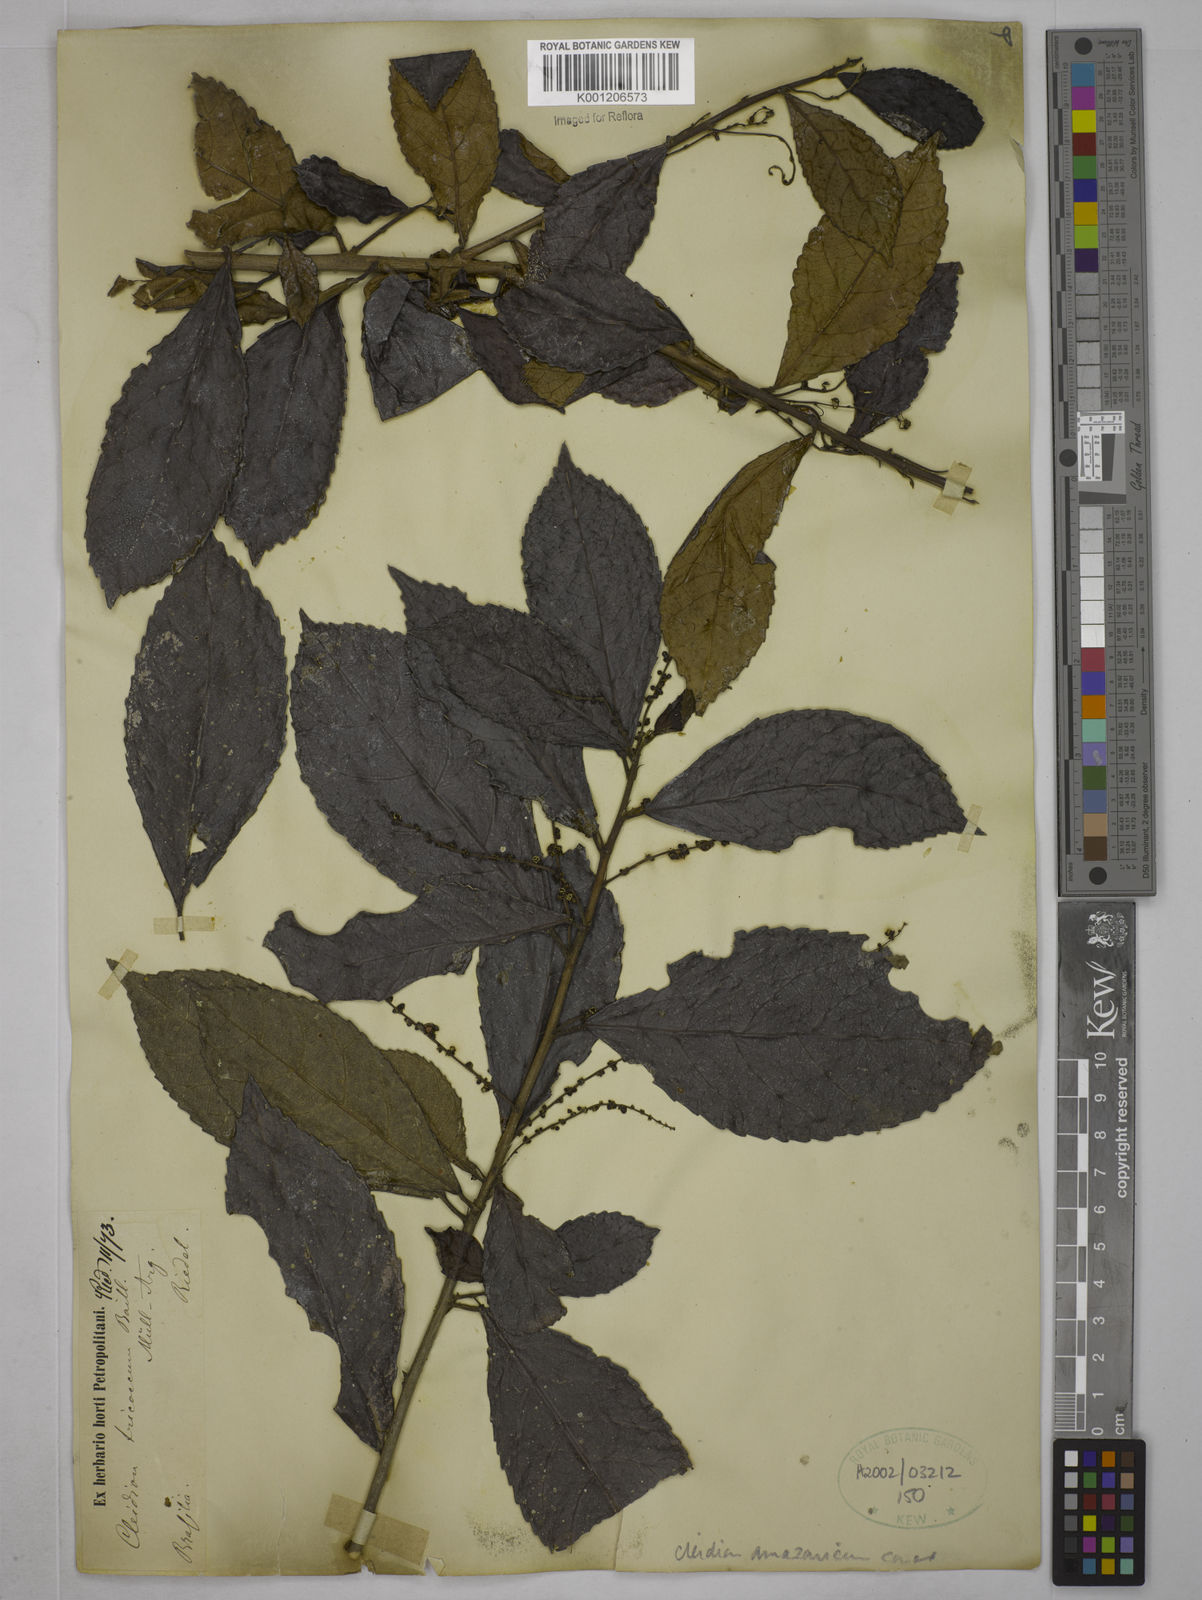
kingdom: Plantae
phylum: Tracheophyta
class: Magnoliopsida
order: Malpighiales
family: Euphorbiaceae
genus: Cleidion
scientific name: Cleidion amazonicum
